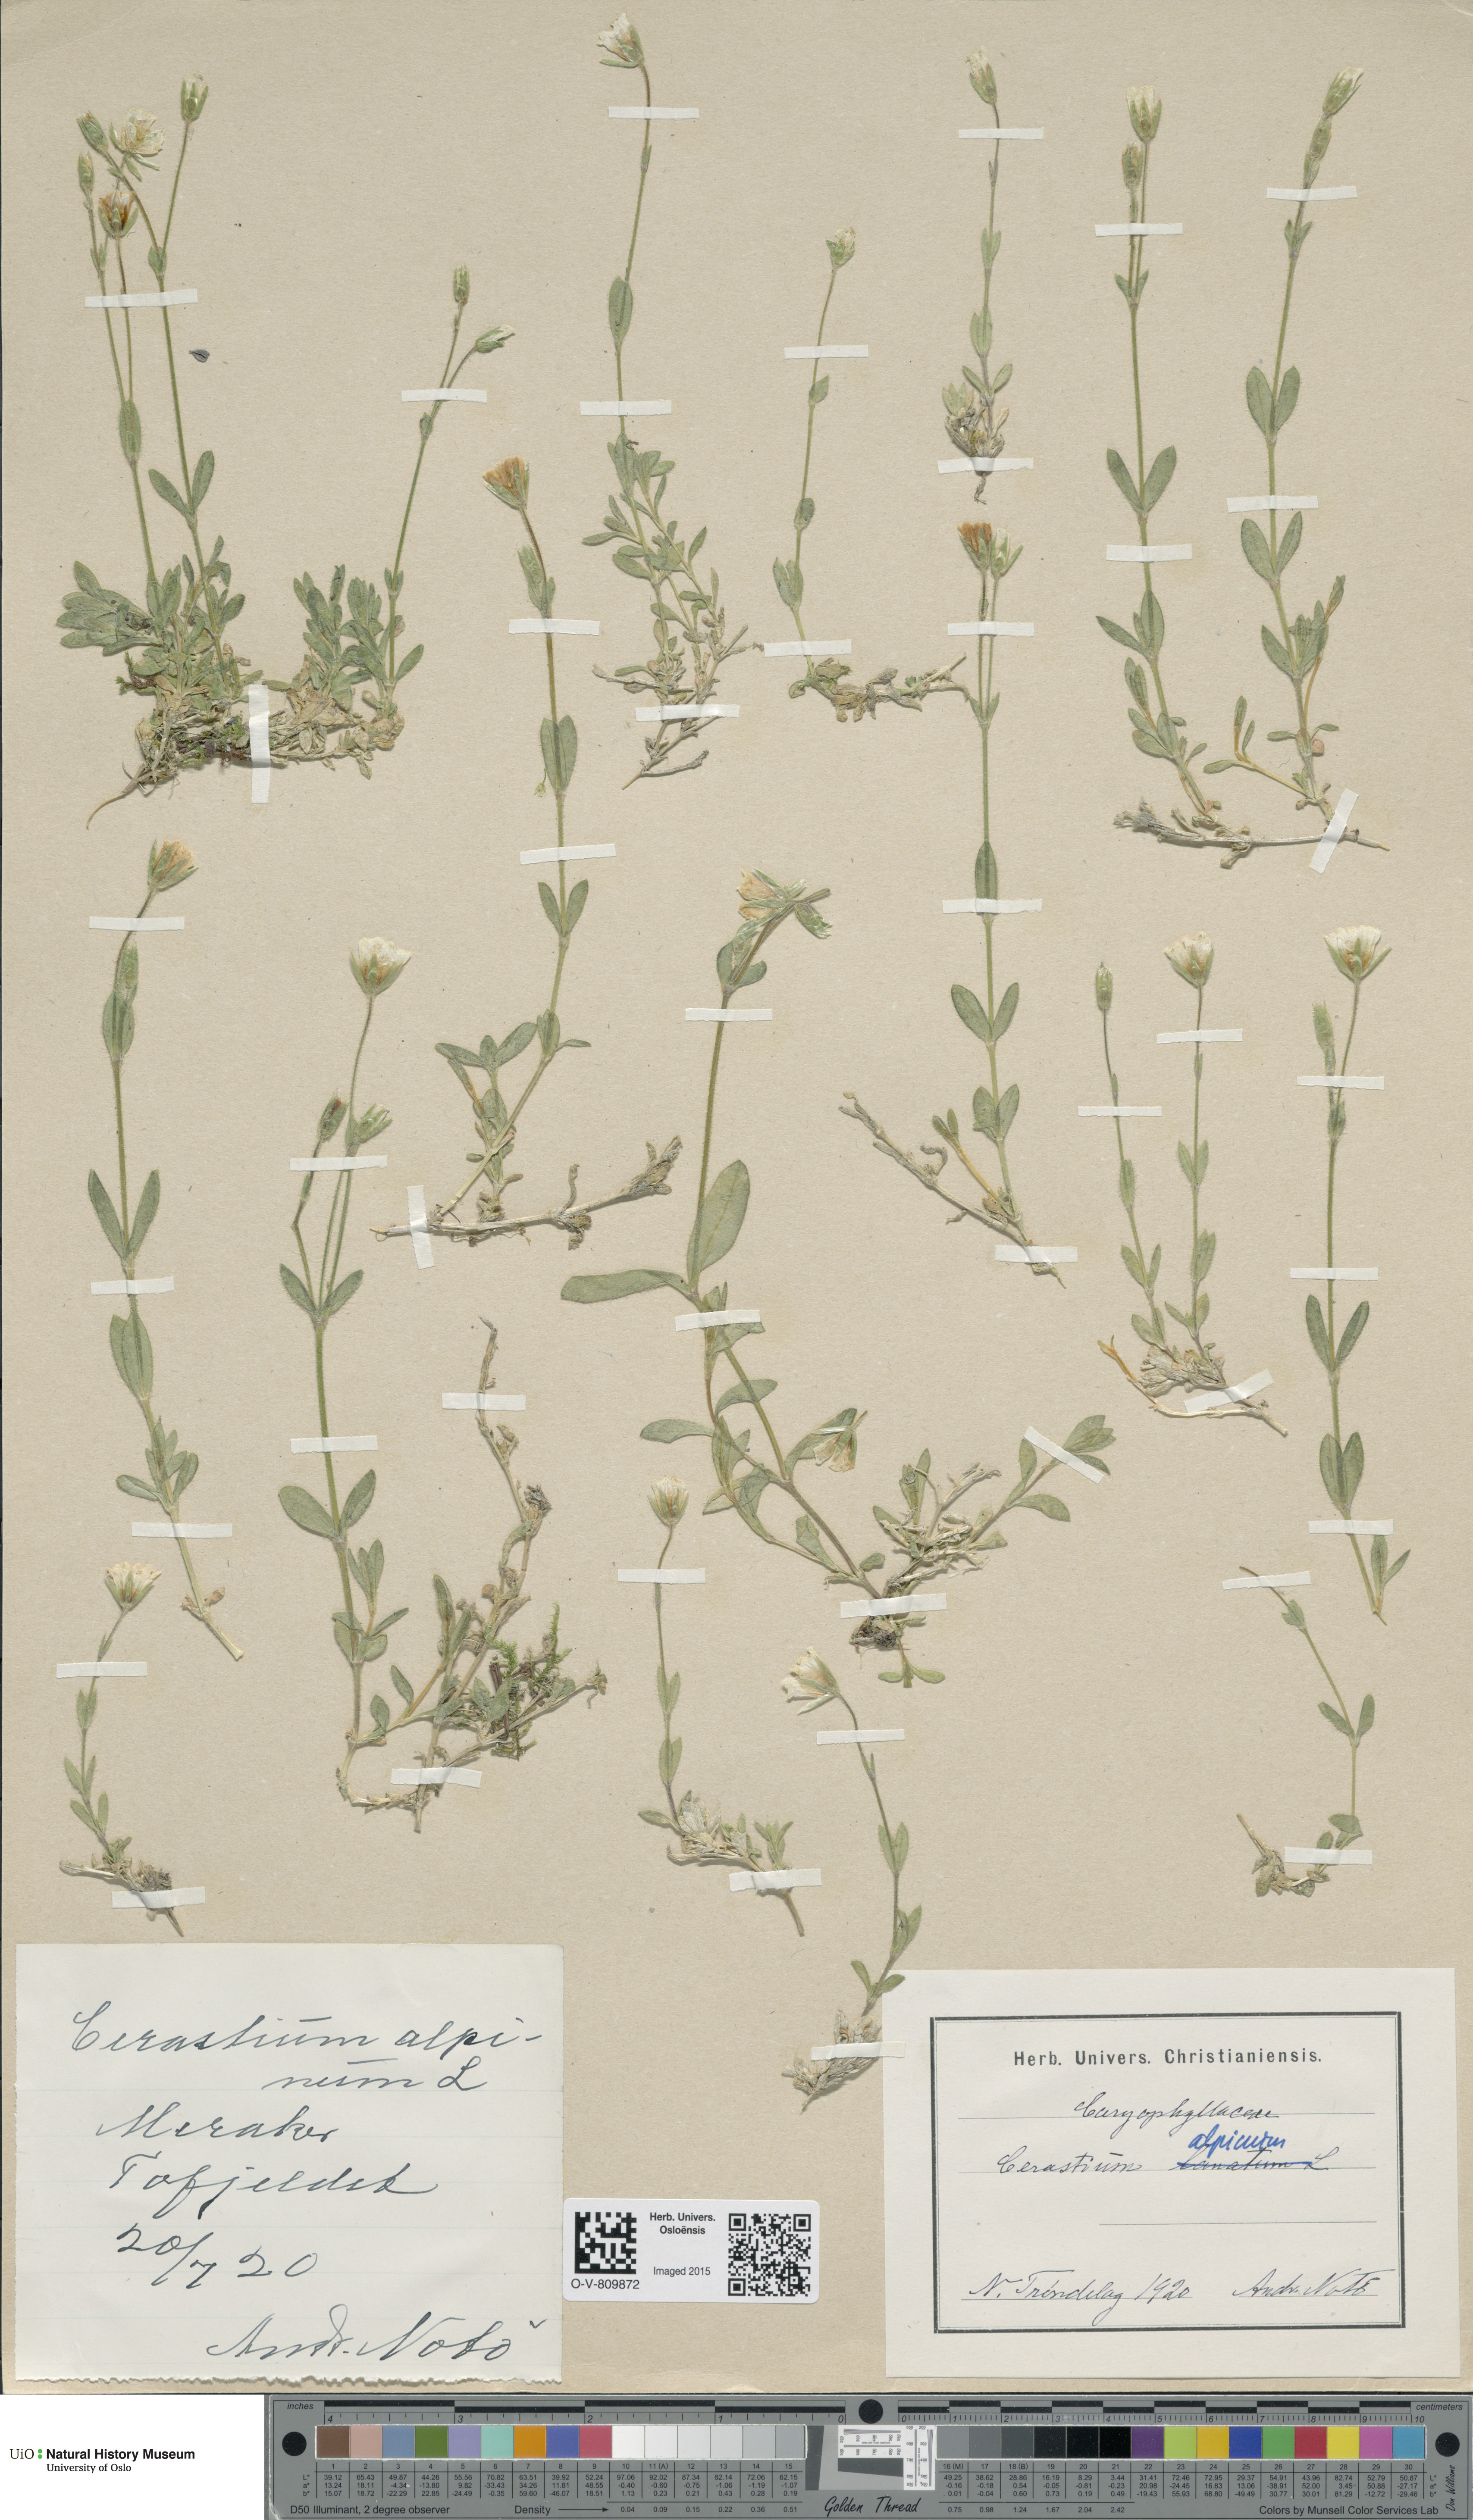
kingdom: Plantae
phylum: Tracheophyta
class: Magnoliopsida
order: Caryophyllales
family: Caryophyllaceae
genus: Cerastium
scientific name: Cerastium alpinum
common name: Alpine mouse-ear
